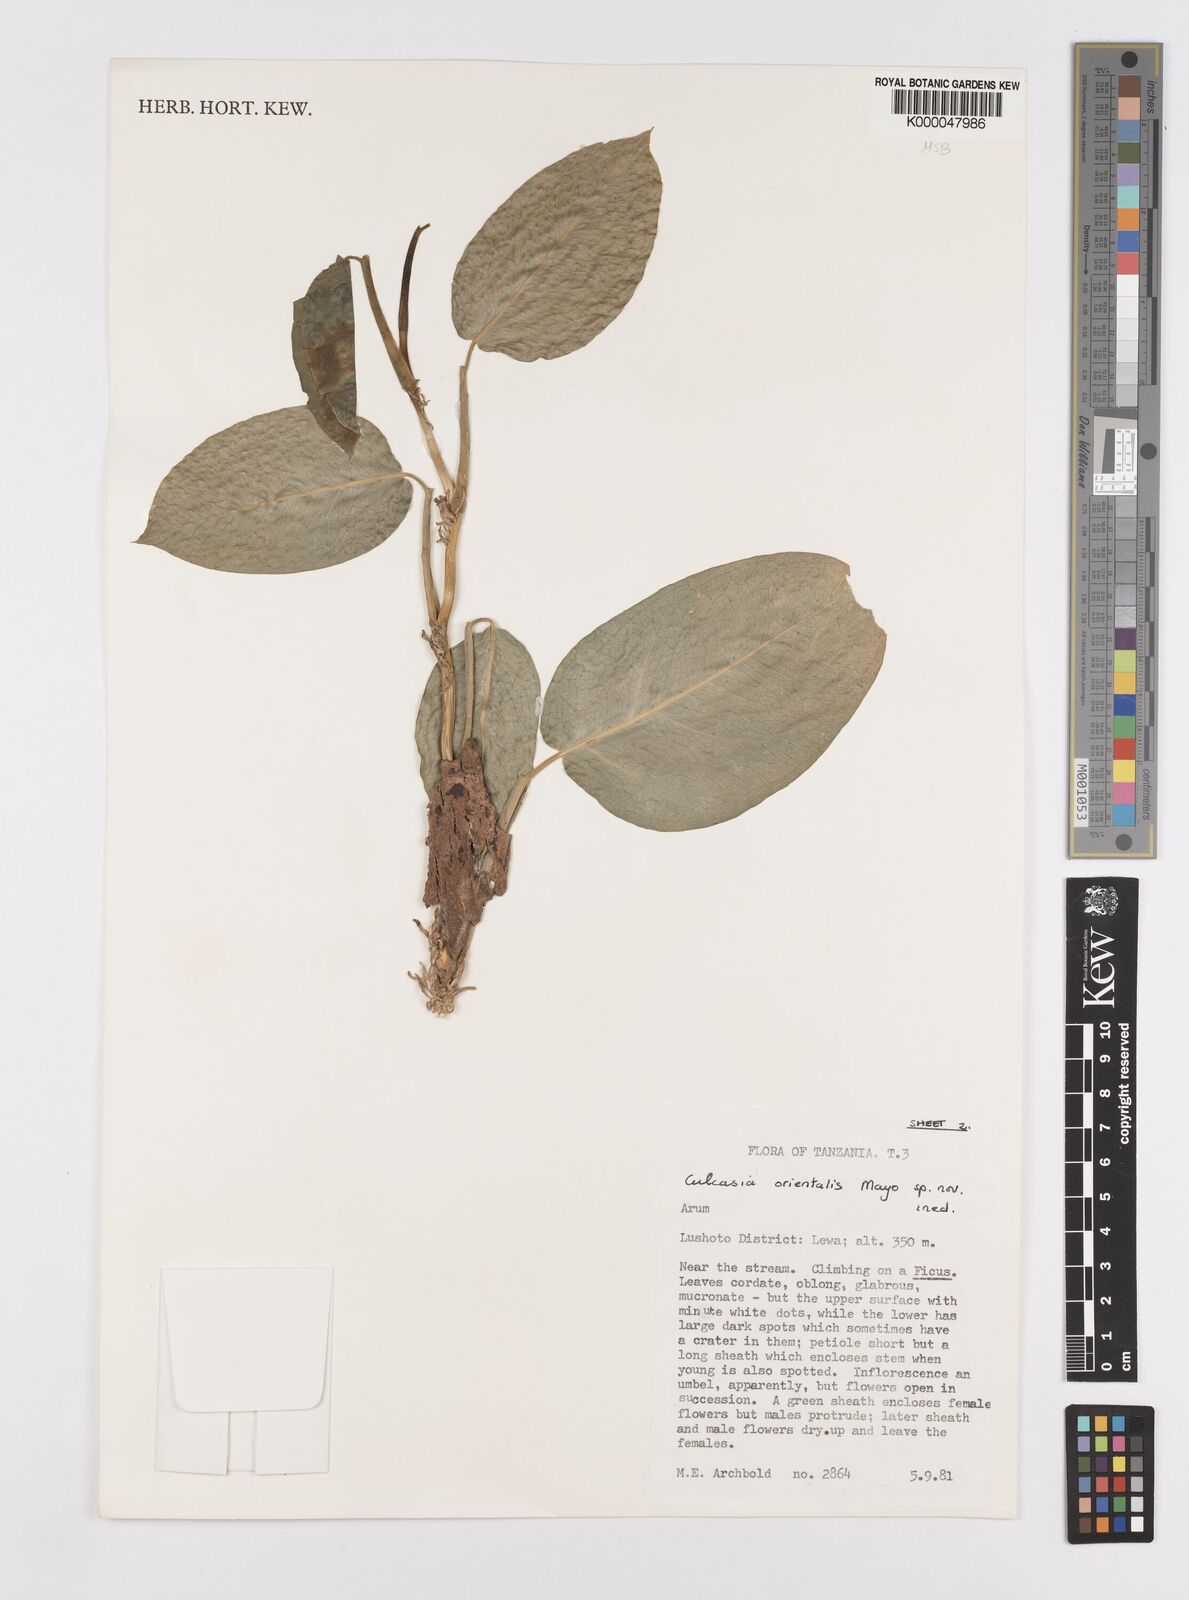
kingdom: Plantae
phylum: Tracheophyta
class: Liliopsida
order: Alismatales
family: Araceae
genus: Culcasia
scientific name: Culcasia orientalis
